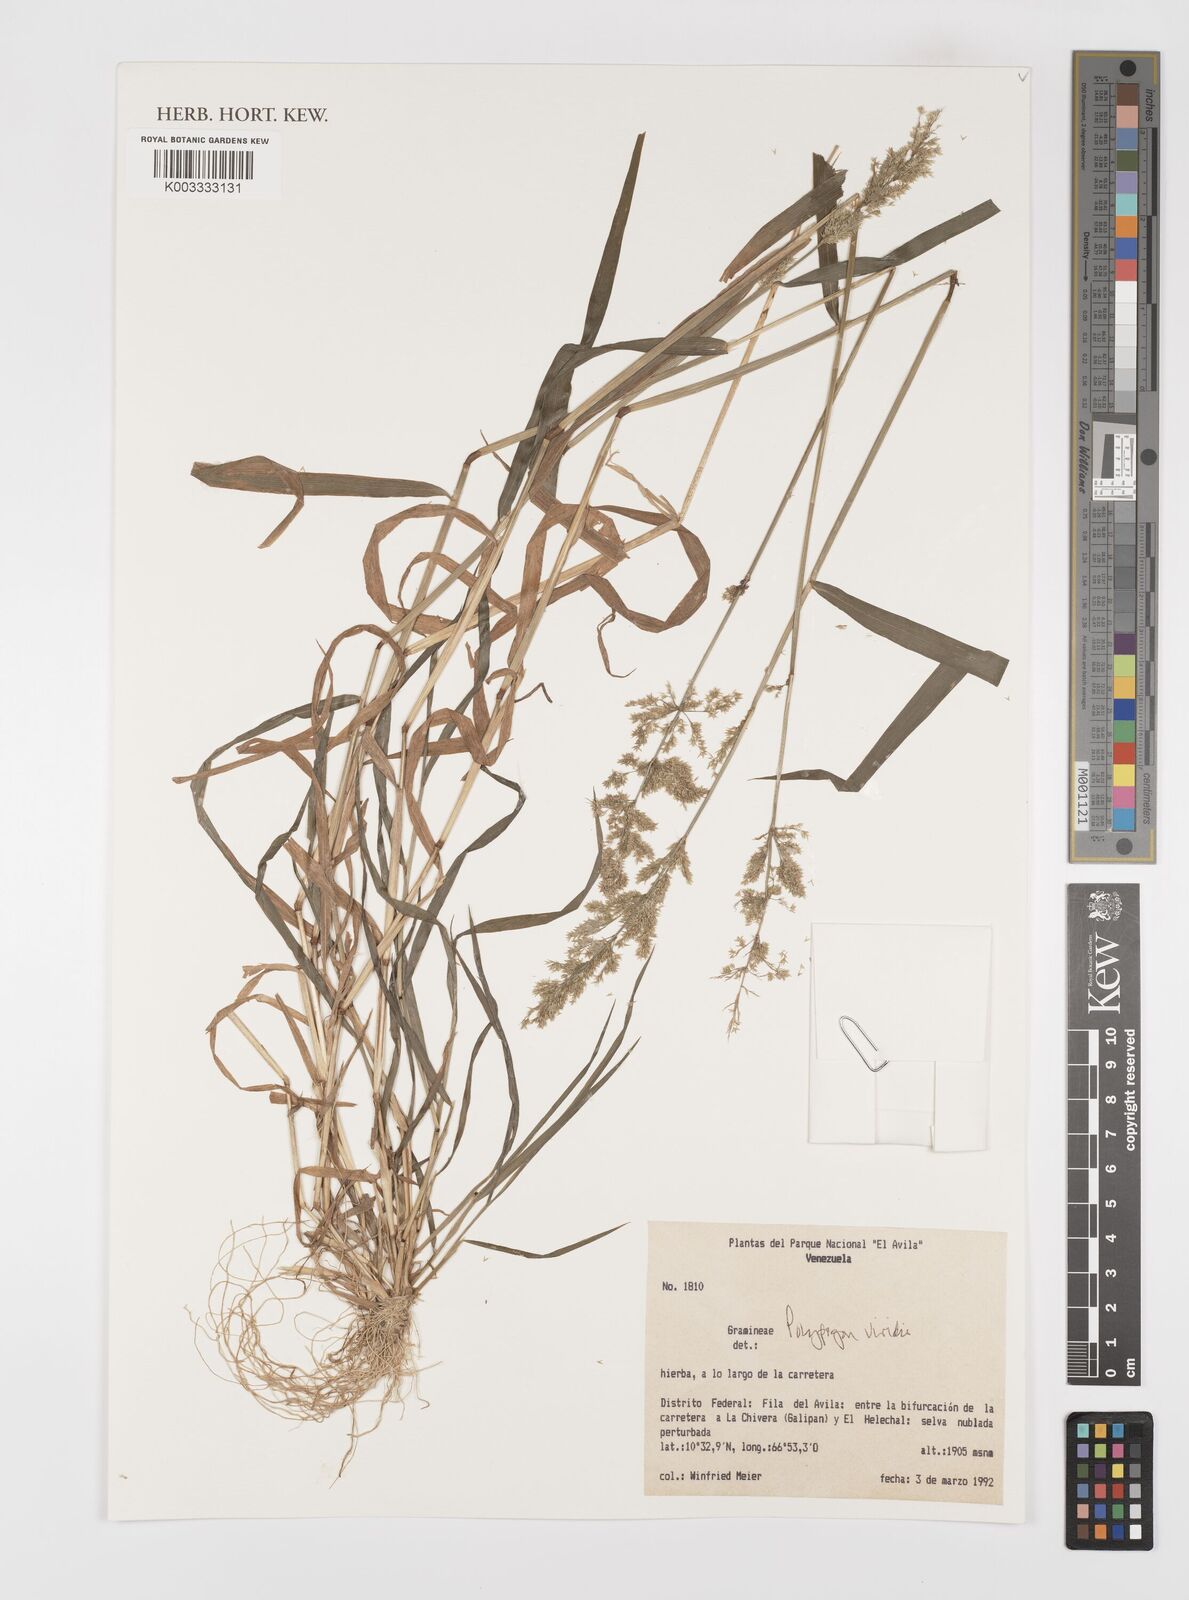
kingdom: Plantae
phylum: Tracheophyta
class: Liliopsida
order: Poales
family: Poaceae
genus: Polypogon
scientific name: Polypogon viridis
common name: Water bent
